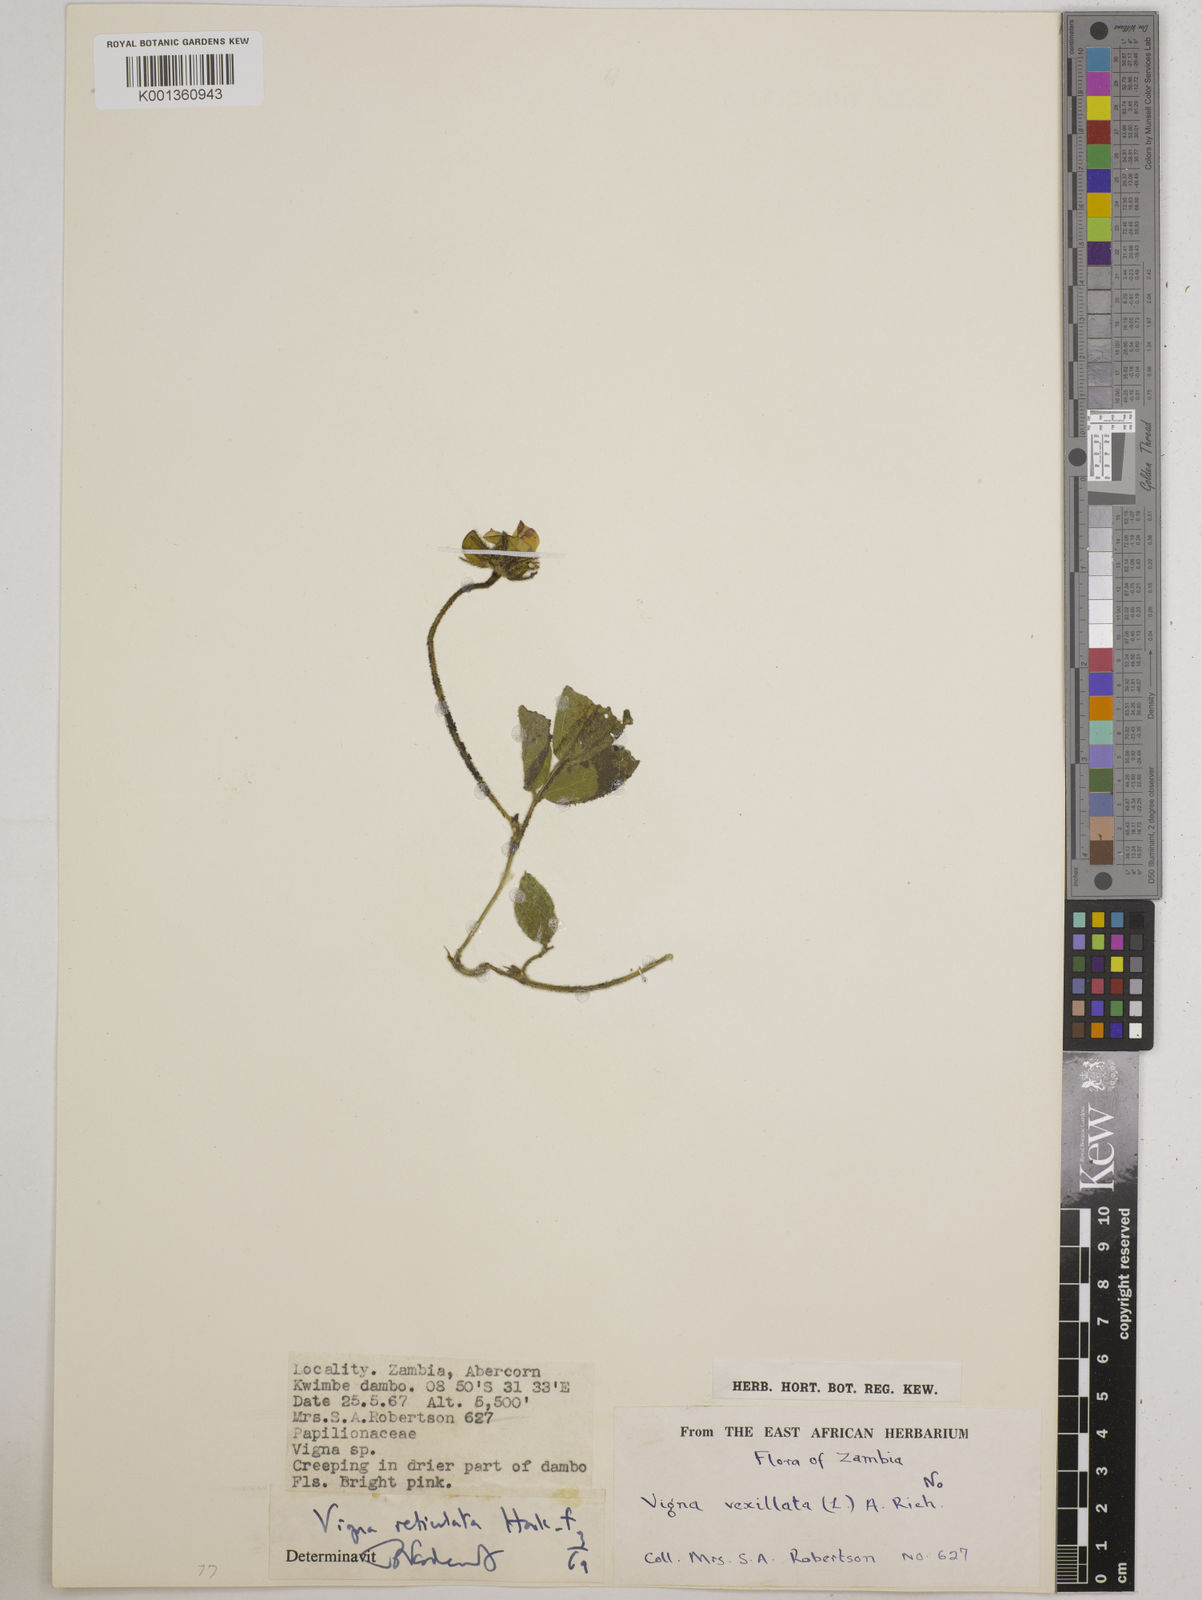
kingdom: Plantae
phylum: Tracheophyta
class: Magnoliopsida
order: Fabales
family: Fabaceae
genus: Vigna
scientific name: Vigna reticulata
